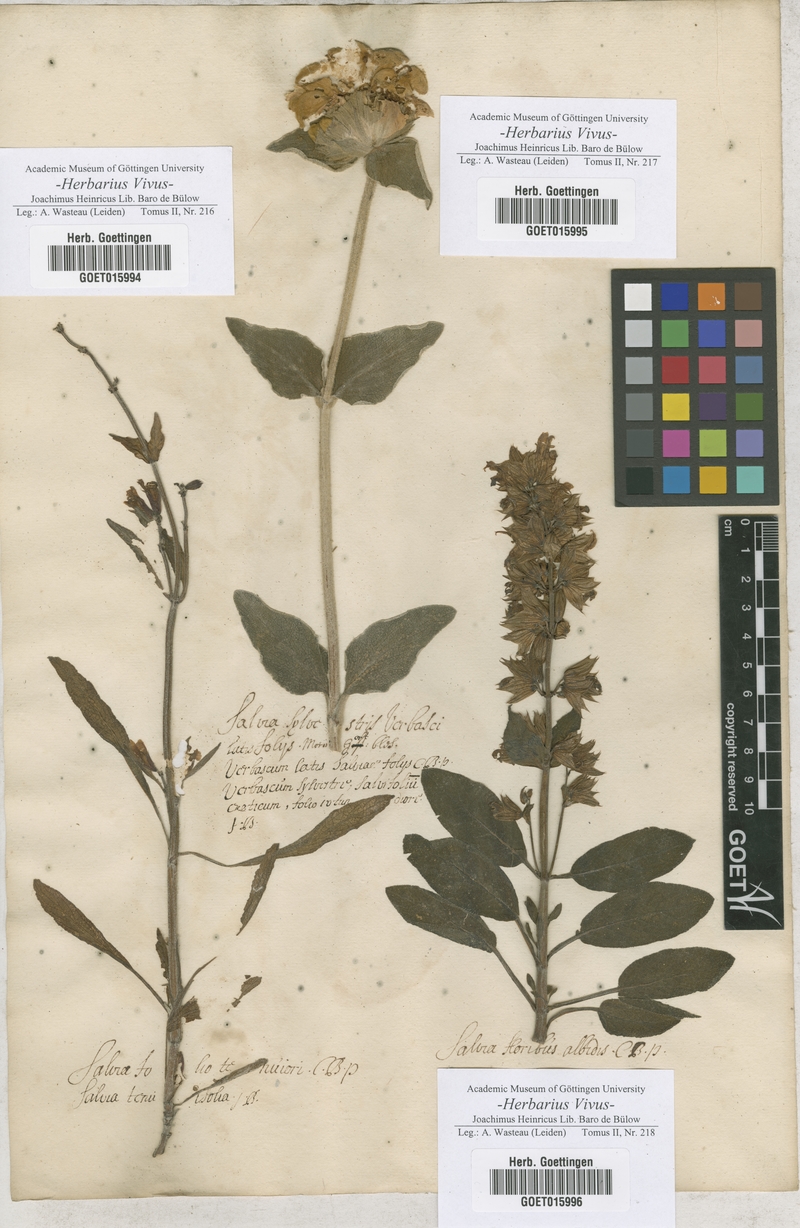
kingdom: Plantae
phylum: Tracheophyta
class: Magnoliopsida
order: Lamiales
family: Lamiaceae
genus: Salvia
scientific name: Salvia
